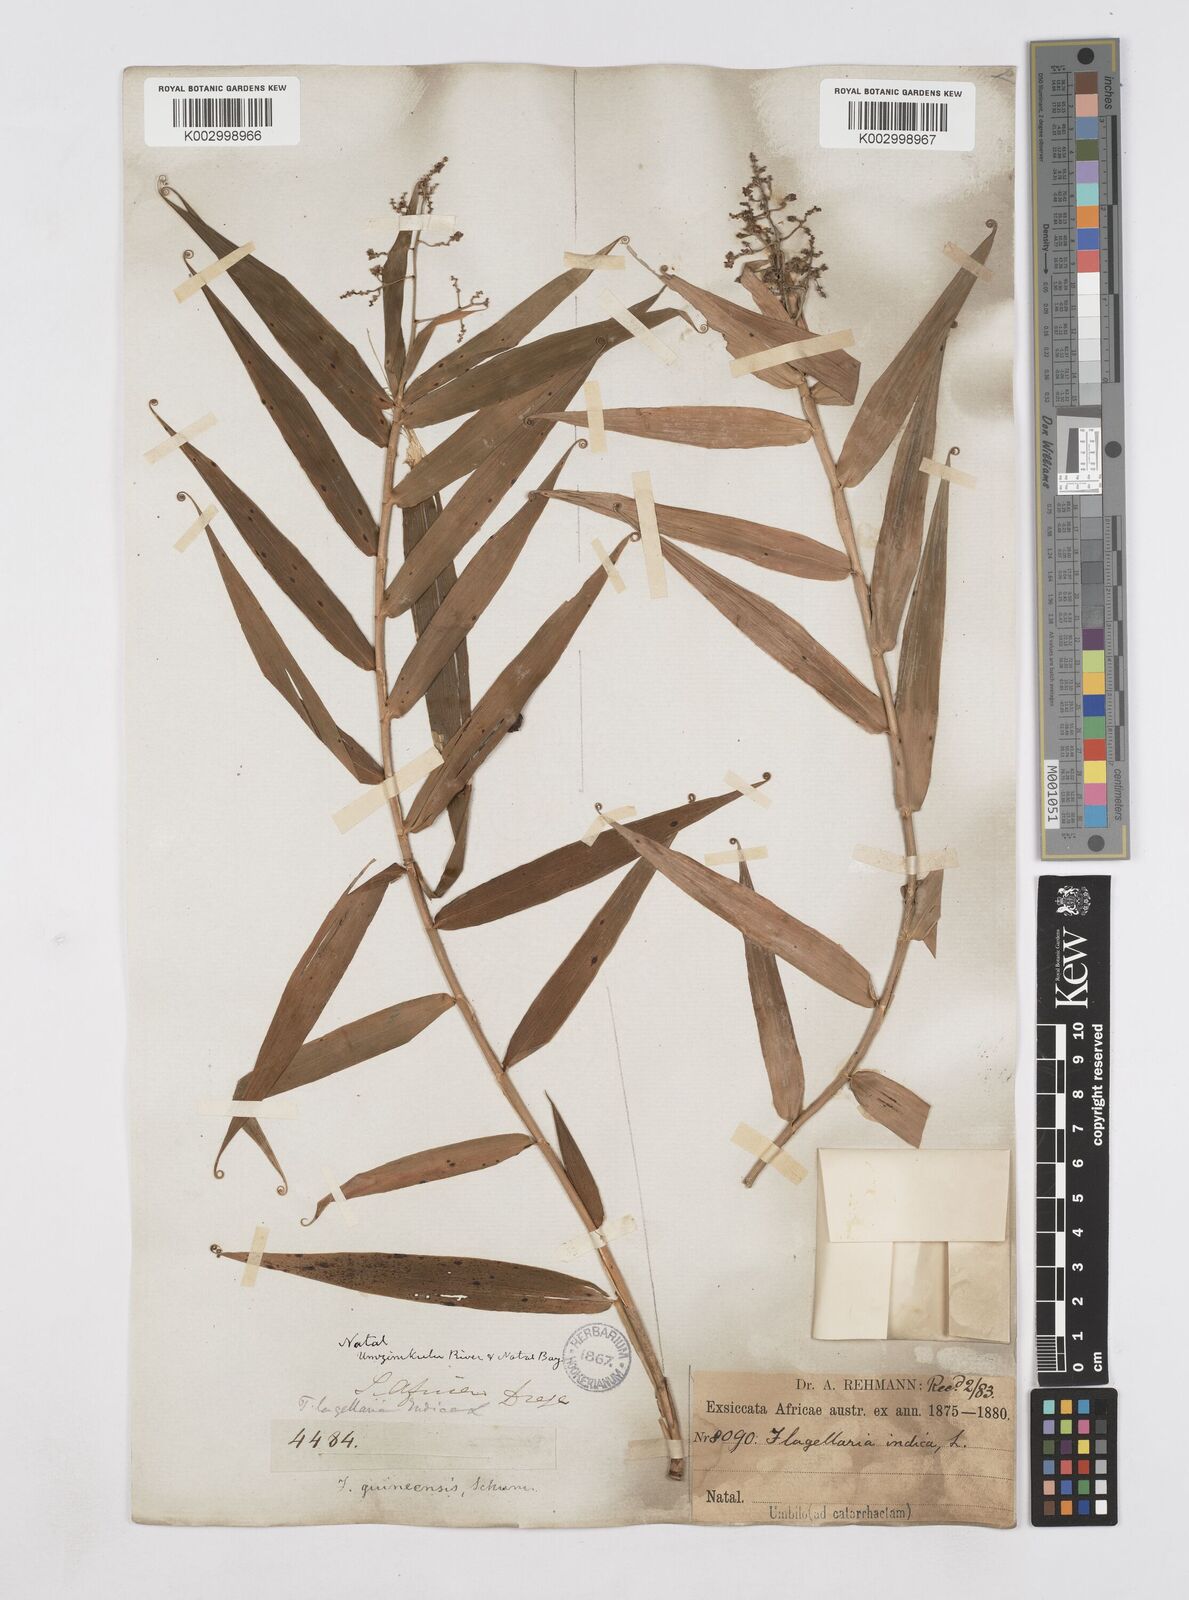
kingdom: Plantae
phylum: Tracheophyta
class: Liliopsida
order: Poales
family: Flagellariaceae
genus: Flagellaria
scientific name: Flagellaria guineensis
